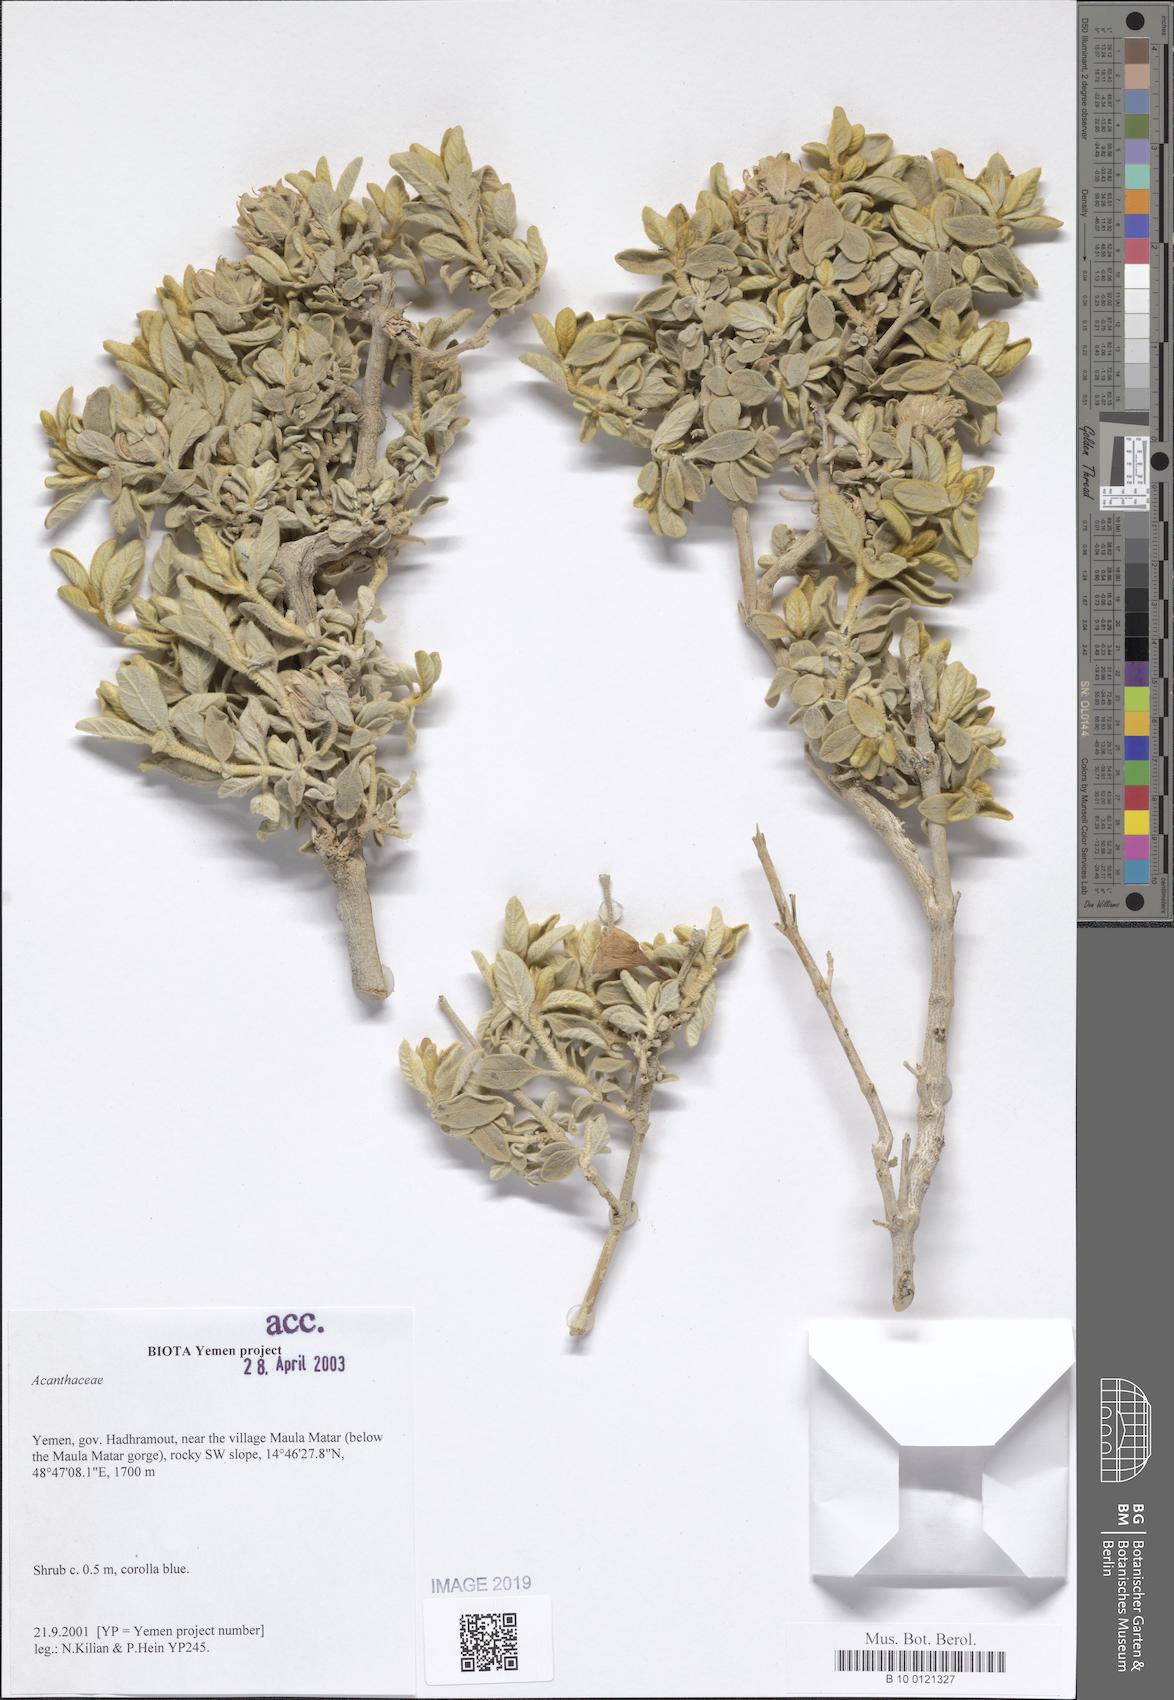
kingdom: Plantae
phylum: Tracheophyta
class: Magnoliopsida
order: Lamiales
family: Acanthaceae
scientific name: Acanthaceae
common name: Acanthaceae
